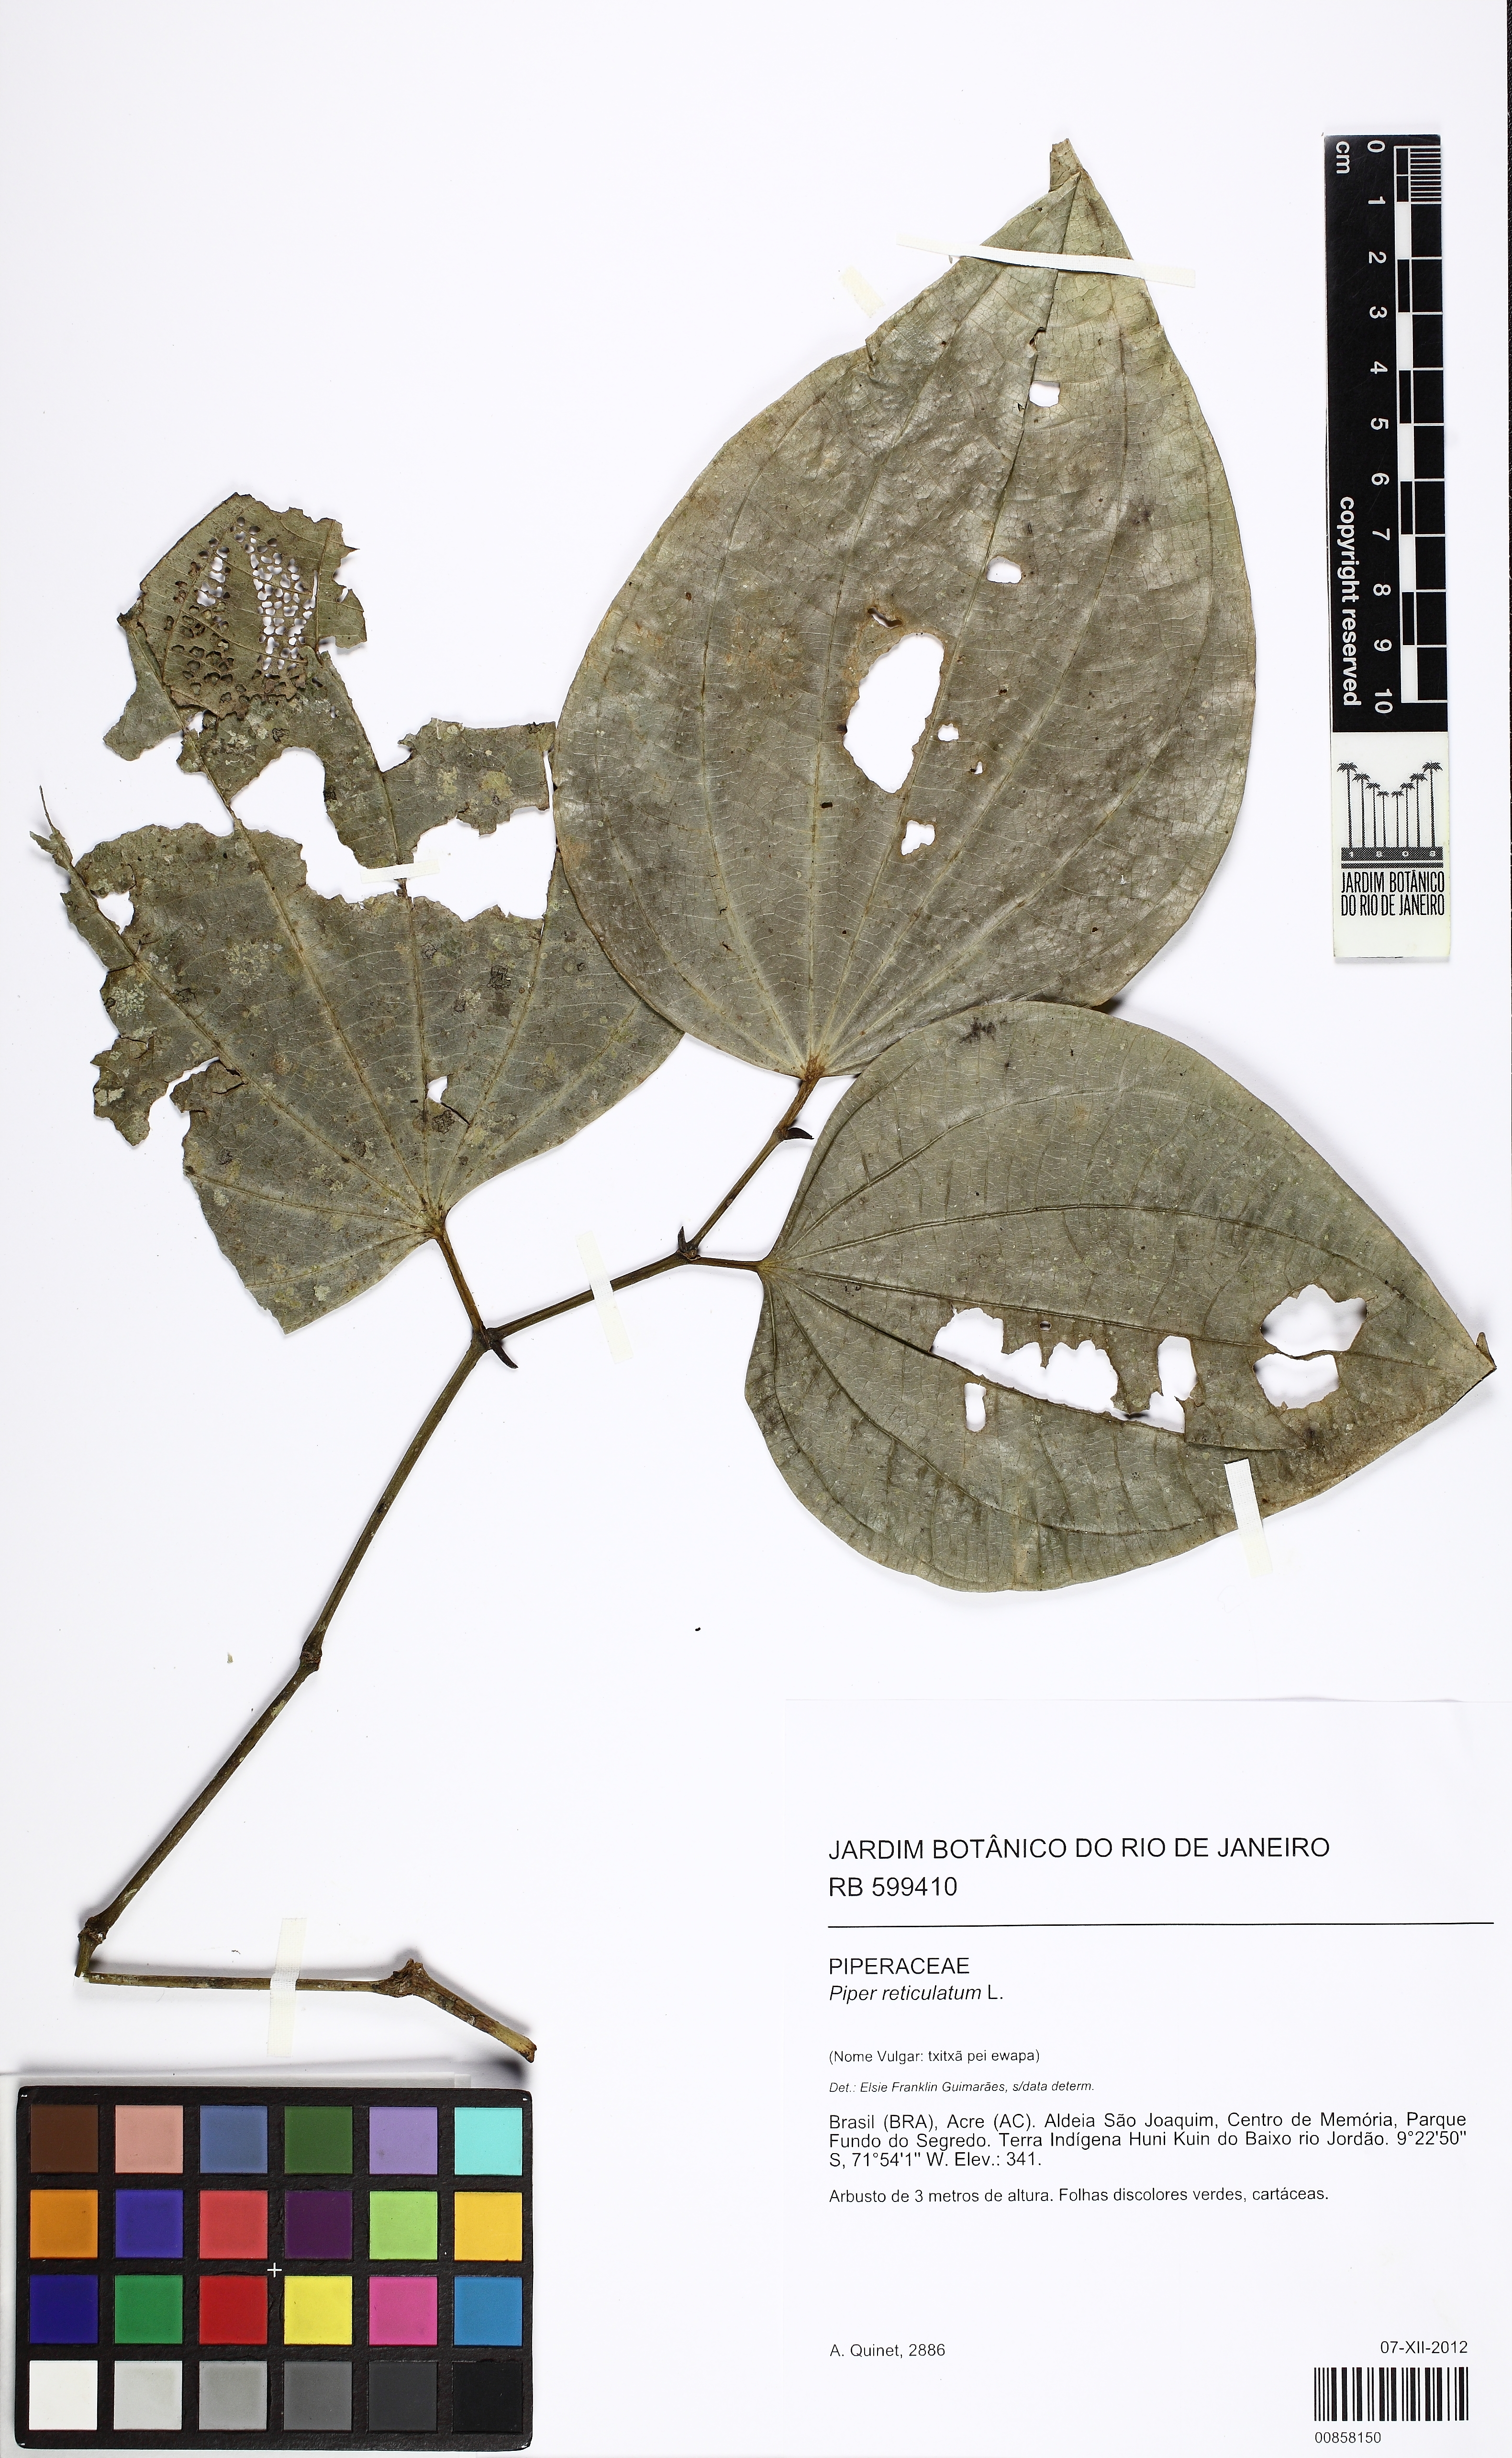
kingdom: Plantae
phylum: Tracheophyta
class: Magnoliopsida
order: Piperales
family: Piperaceae
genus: Piper
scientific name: Piper reticulatum
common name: Wild cane
